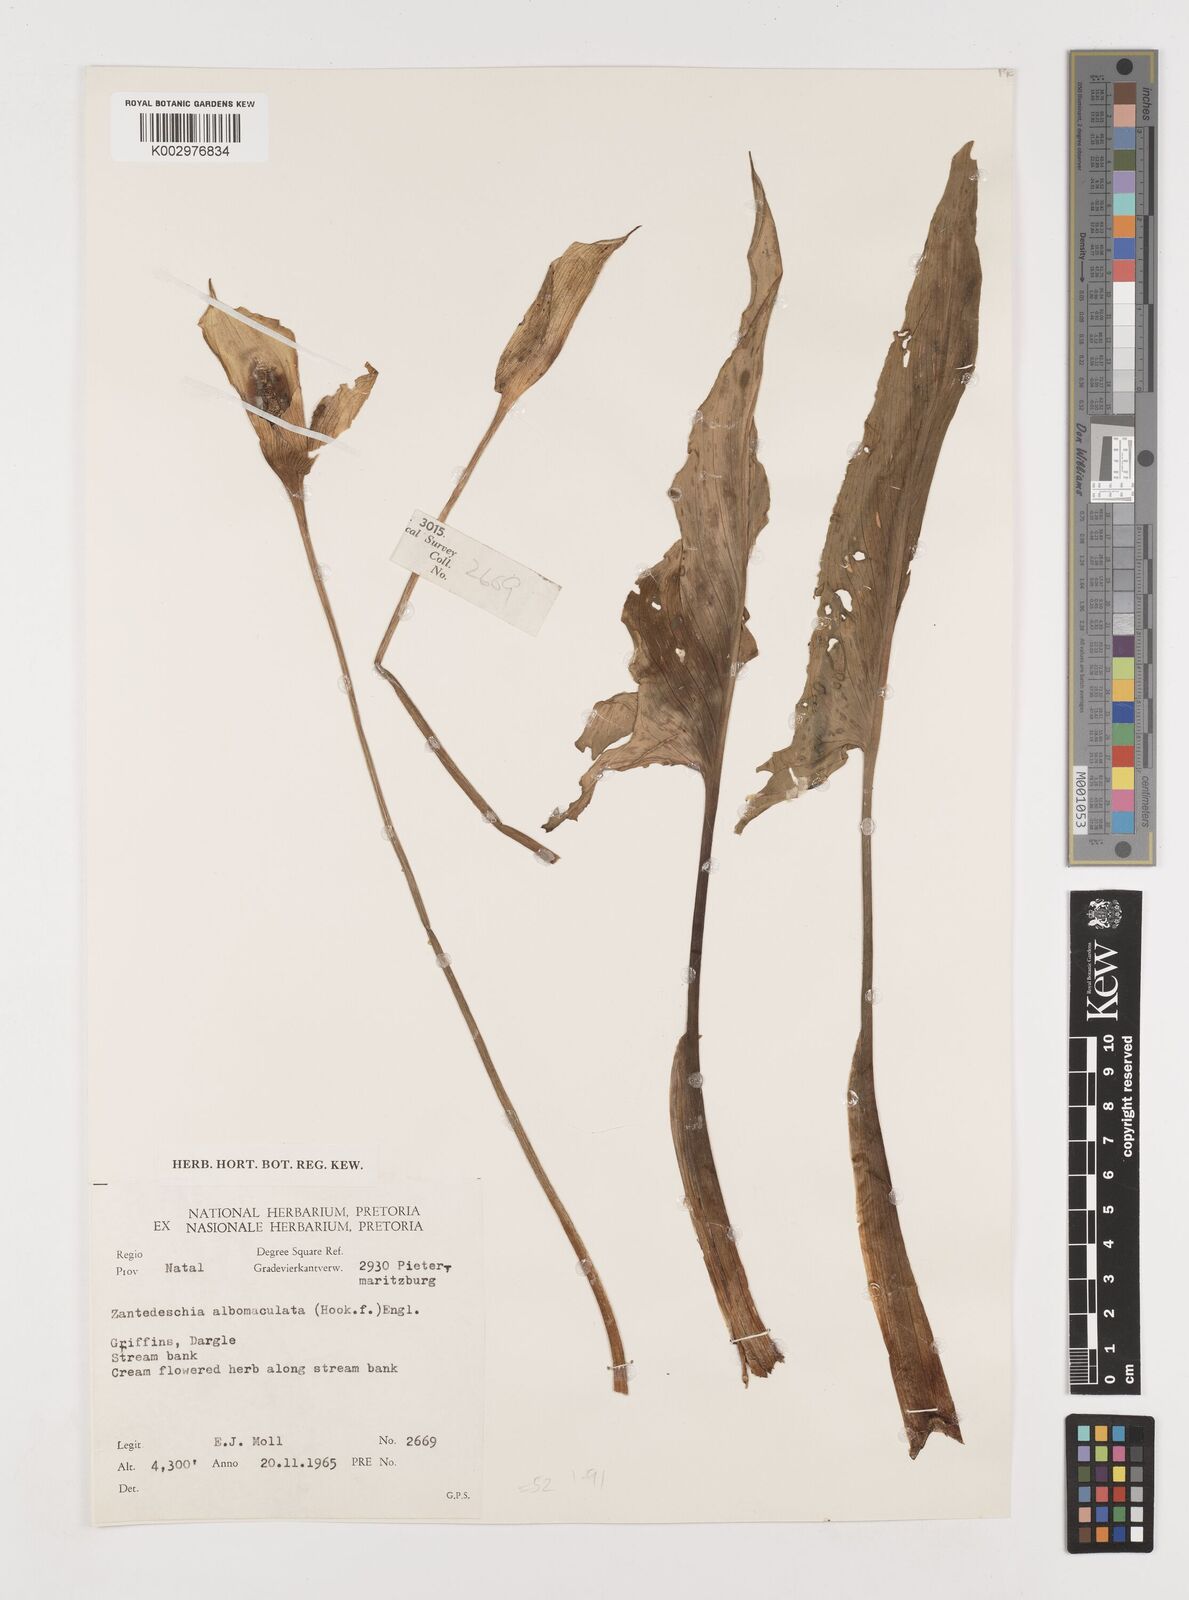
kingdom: Plantae
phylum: Tracheophyta
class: Liliopsida
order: Alismatales
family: Araceae
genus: Zantedeschia
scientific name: Zantedeschia albomaculata
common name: Spotted calla lily
